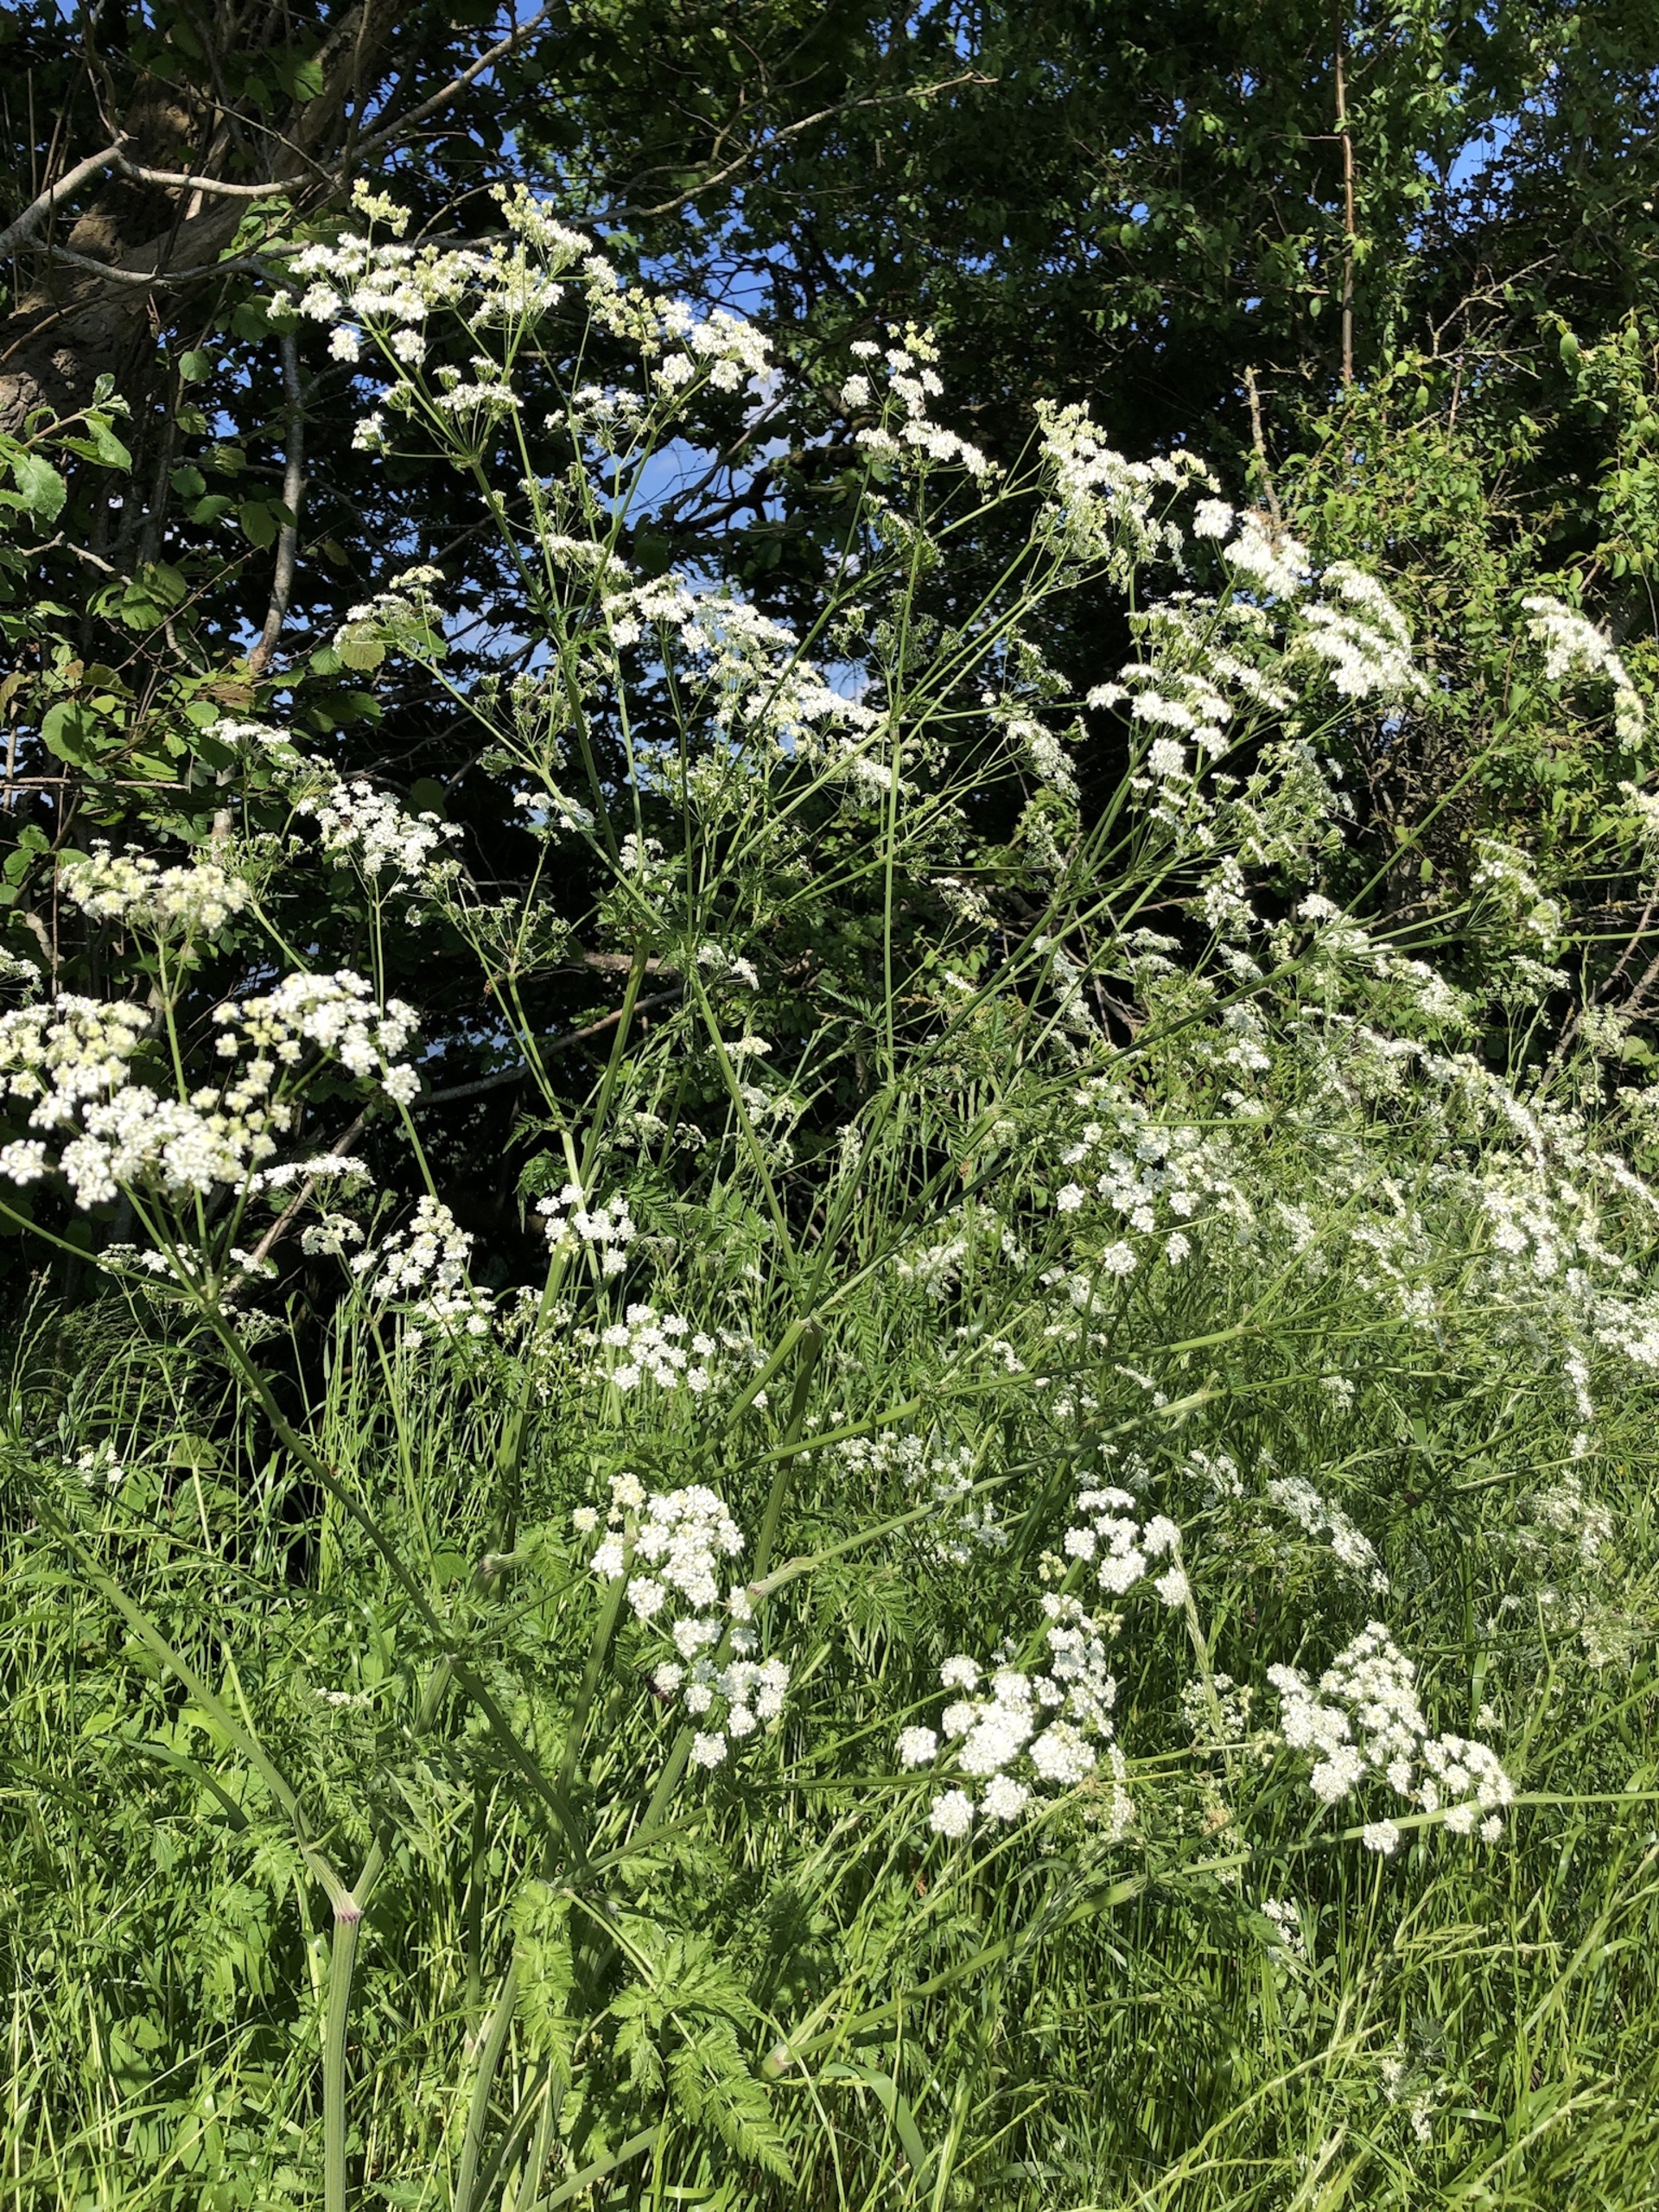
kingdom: Plantae
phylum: Tracheophyta
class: Magnoliopsida
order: Apiales
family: Apiaceae
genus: Anthriscus
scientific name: Anthriscus sylvestris
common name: Vild kørvel
